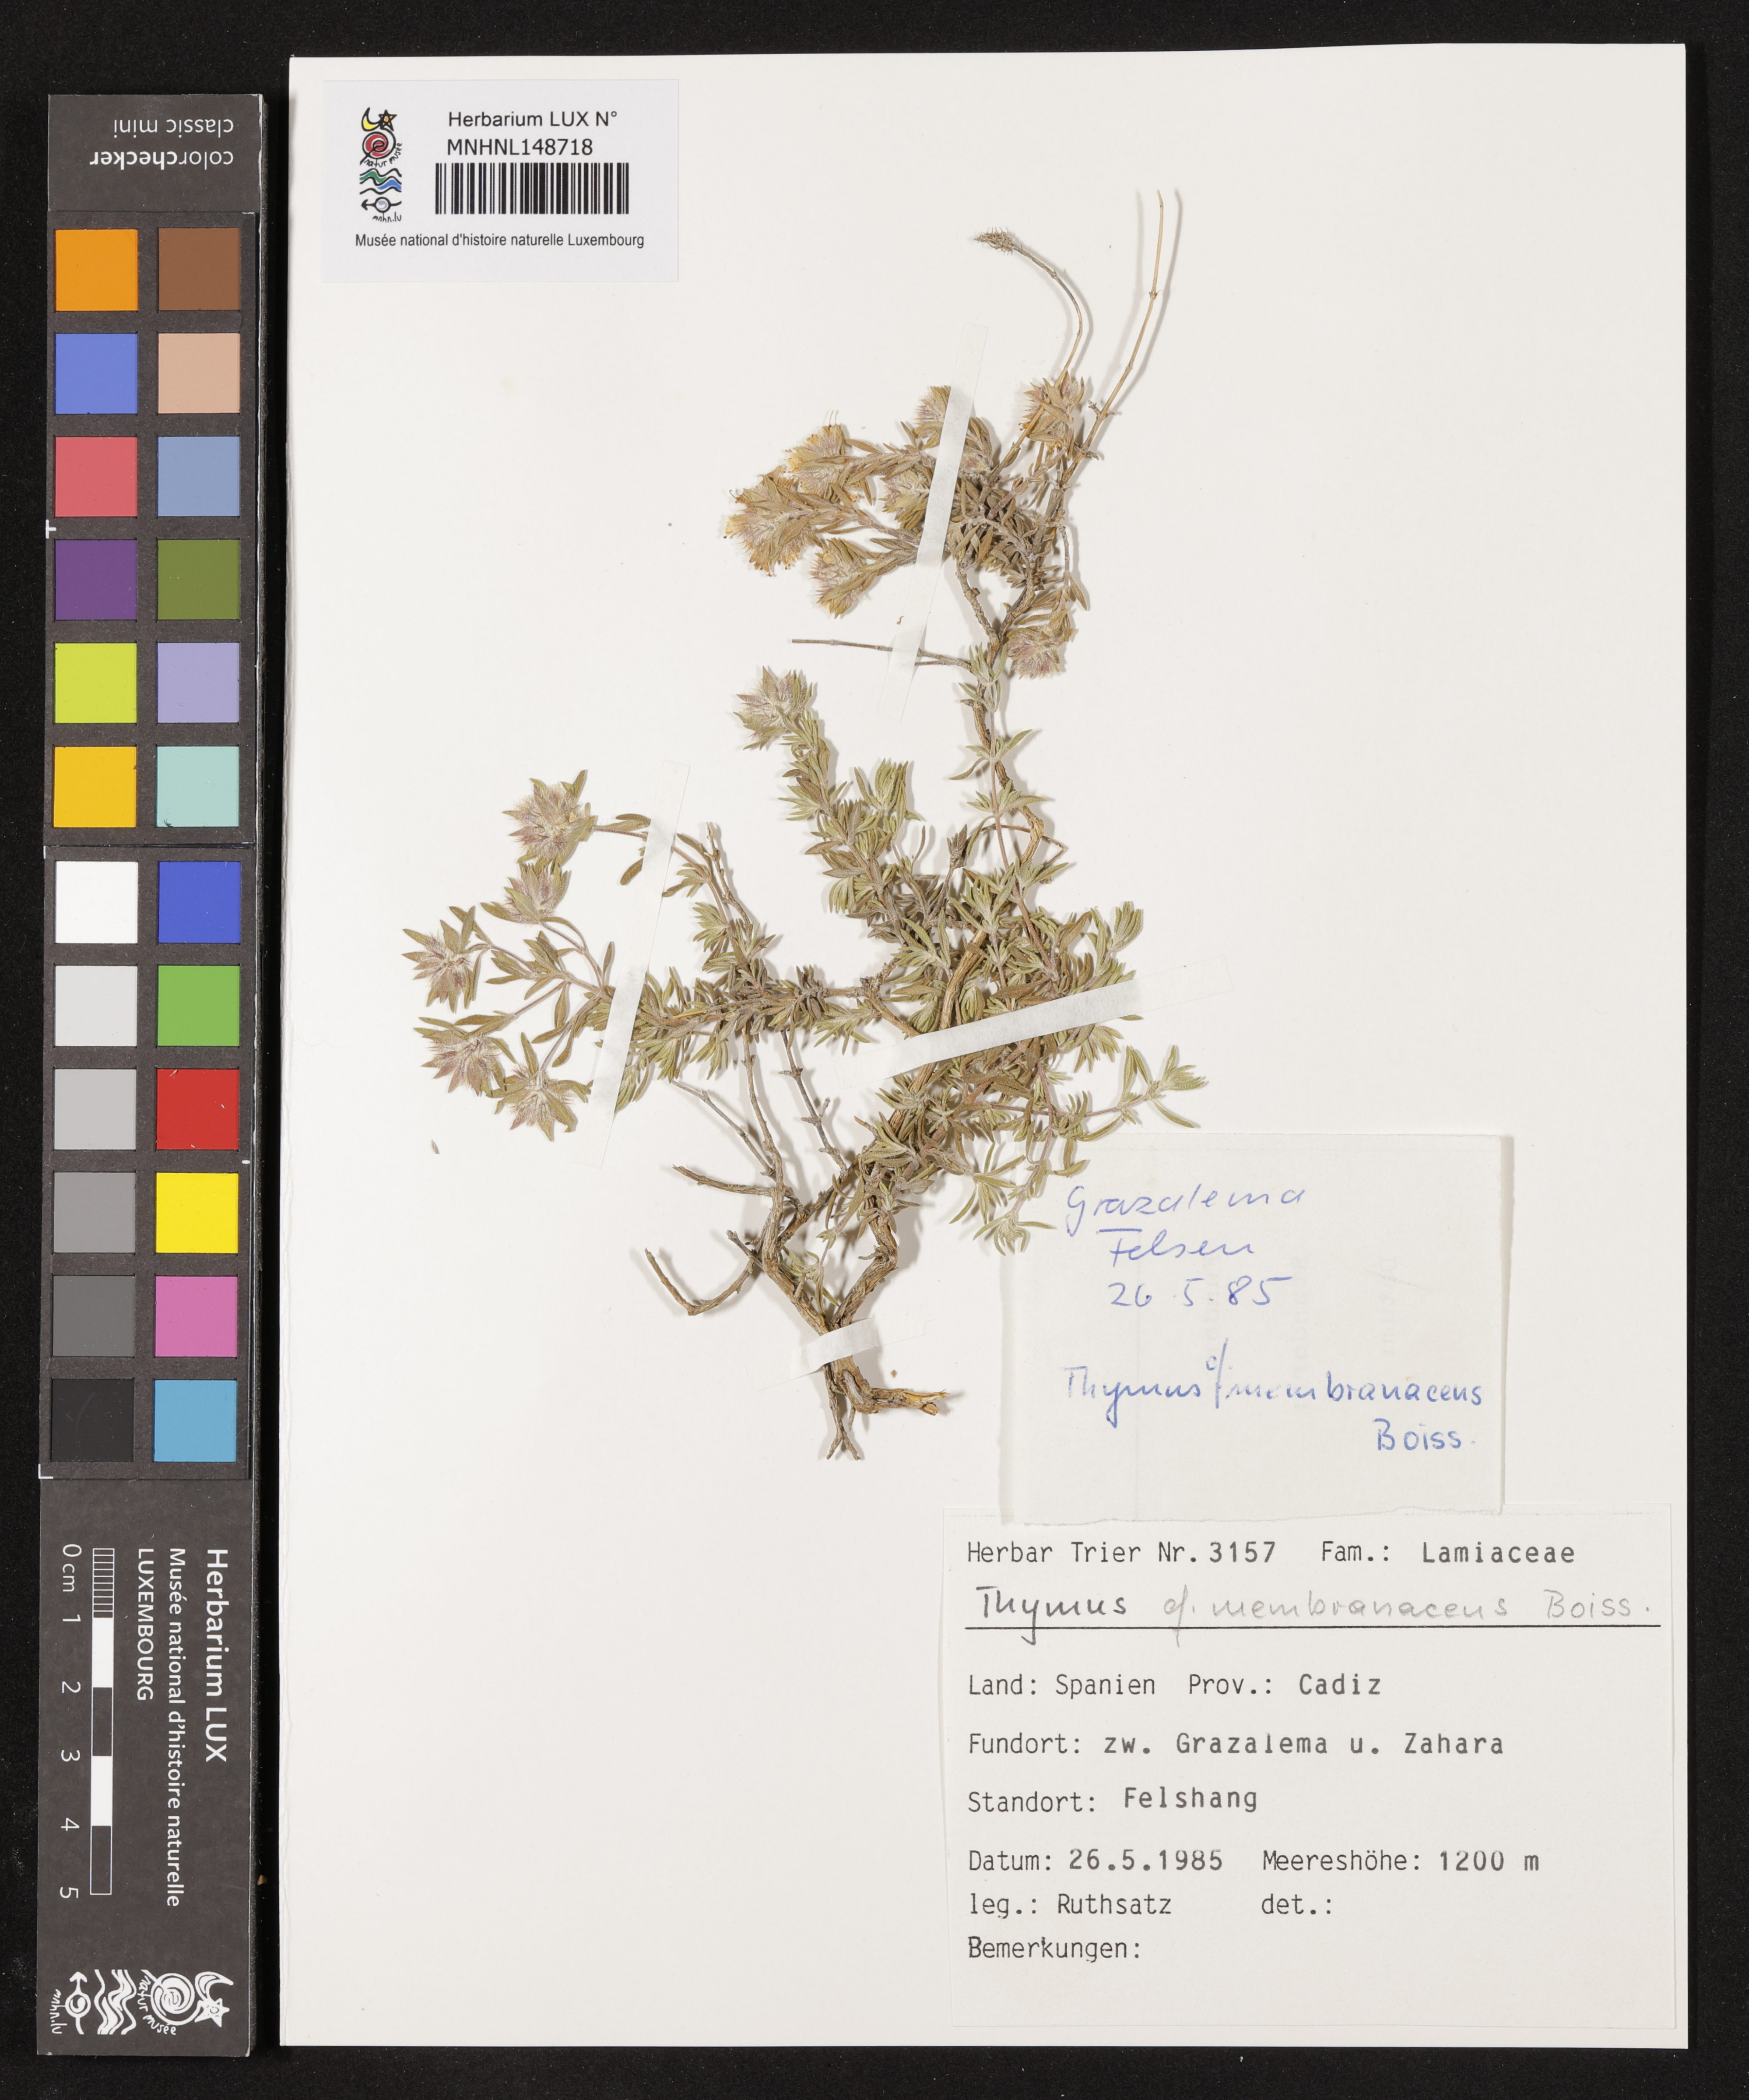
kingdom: Plantae
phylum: Tracheophyta
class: Magnoliopsida
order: Lamiales
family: Lamiaceae
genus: Thymus
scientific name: Thymus membranaceus
